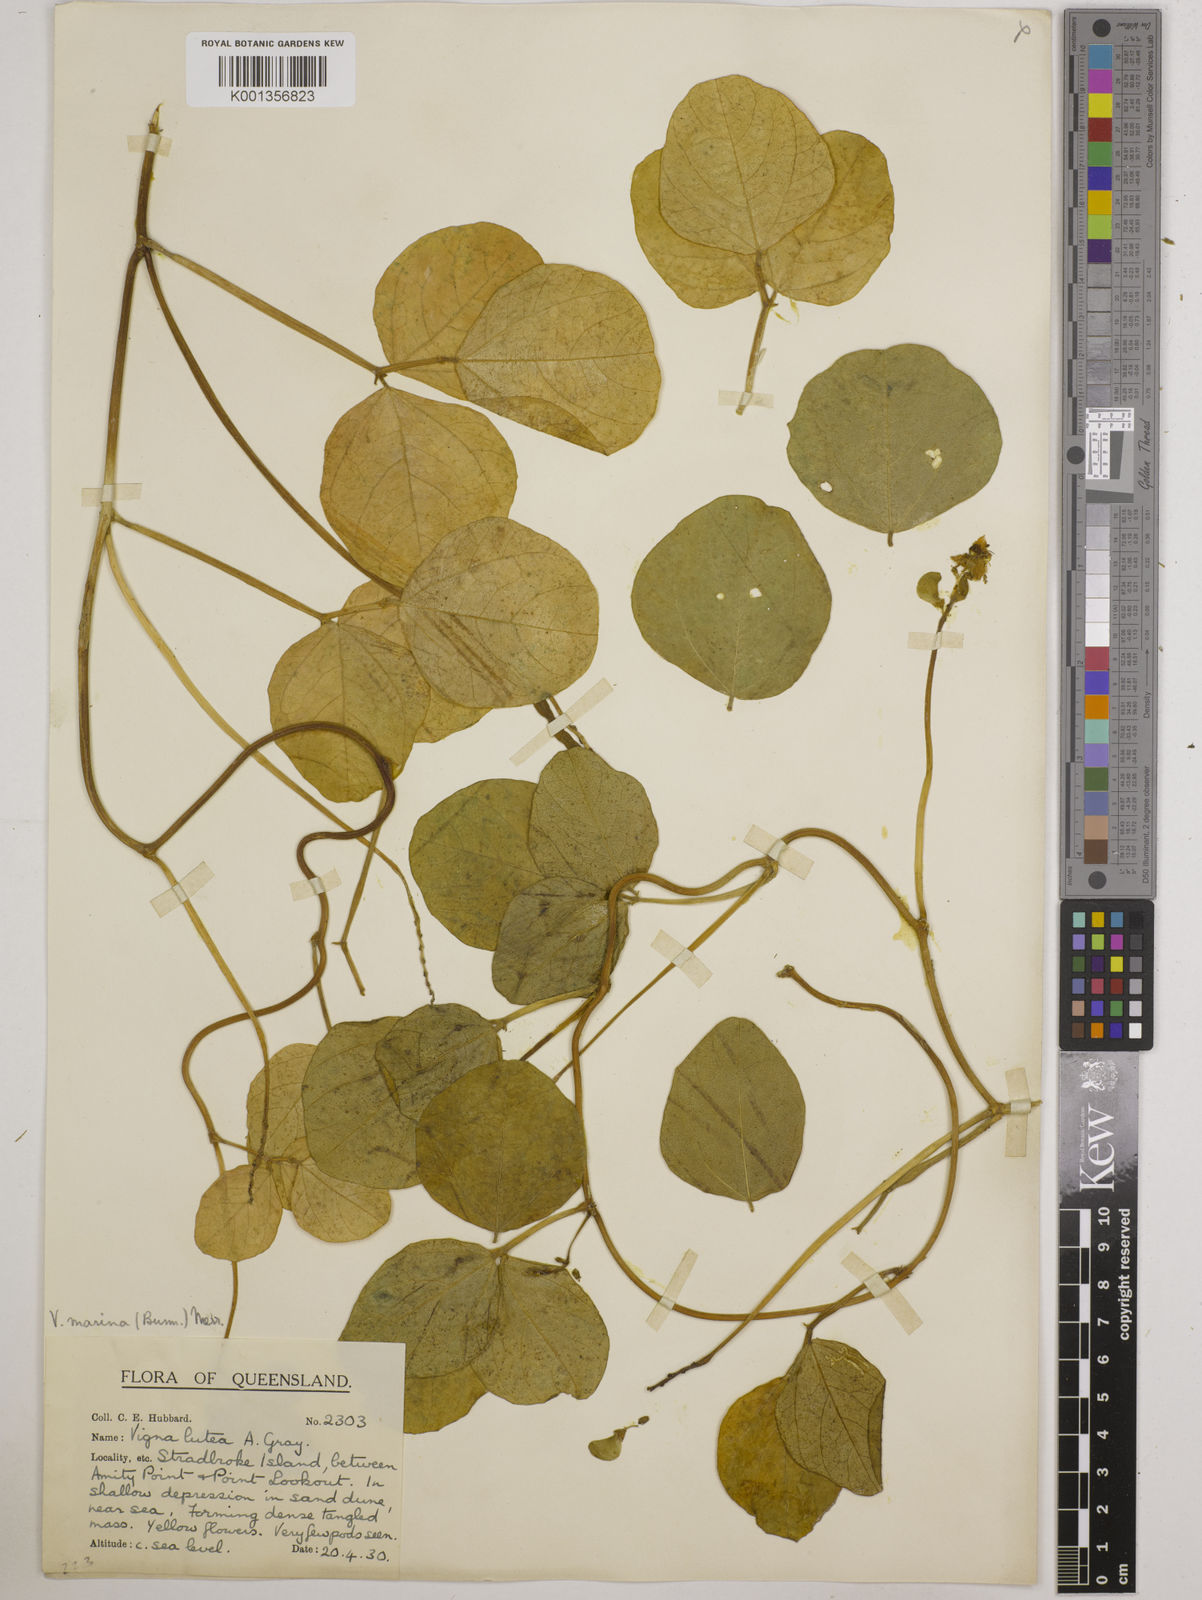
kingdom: Plantae
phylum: Tracheophyta
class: Magnoliopsida
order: Fabales
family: Fabaceae
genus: Vigna
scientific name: Vigna marina
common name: Dune-bean
